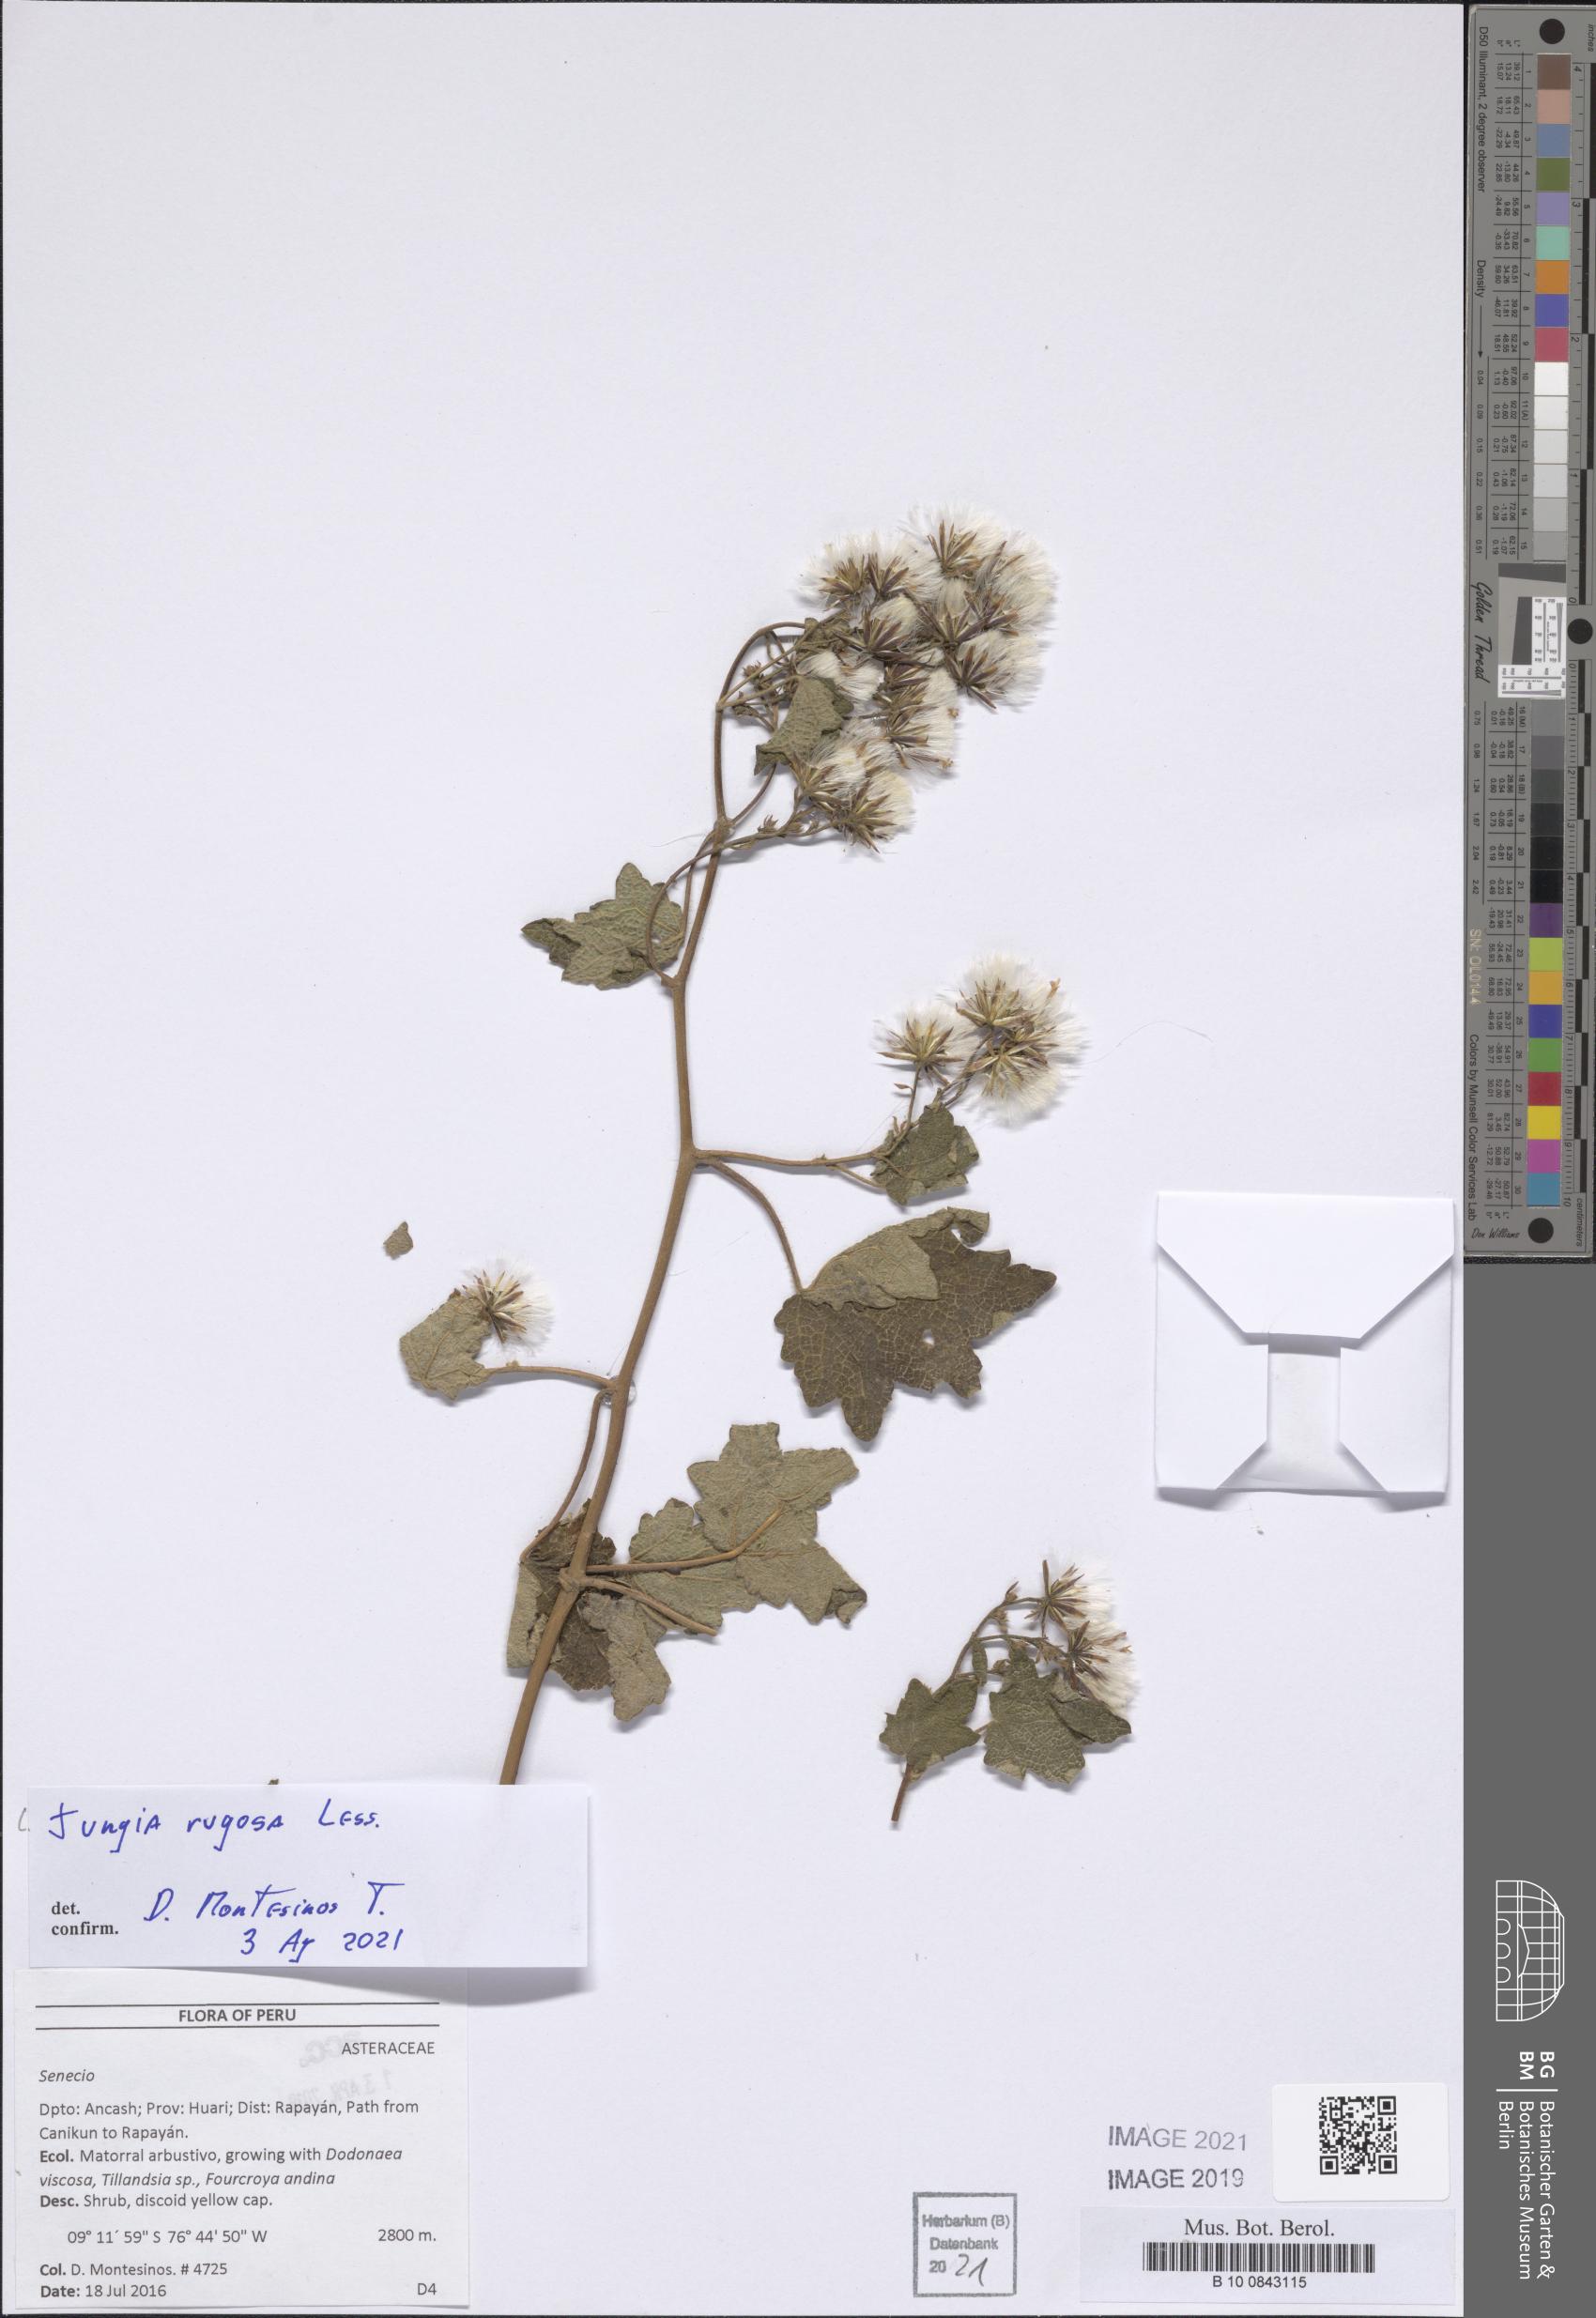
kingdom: Plantae
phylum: Tracheophyta
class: Magnoliopsida
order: Asterales
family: Asteraceae
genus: Jungia
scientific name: Jungia rugosa
